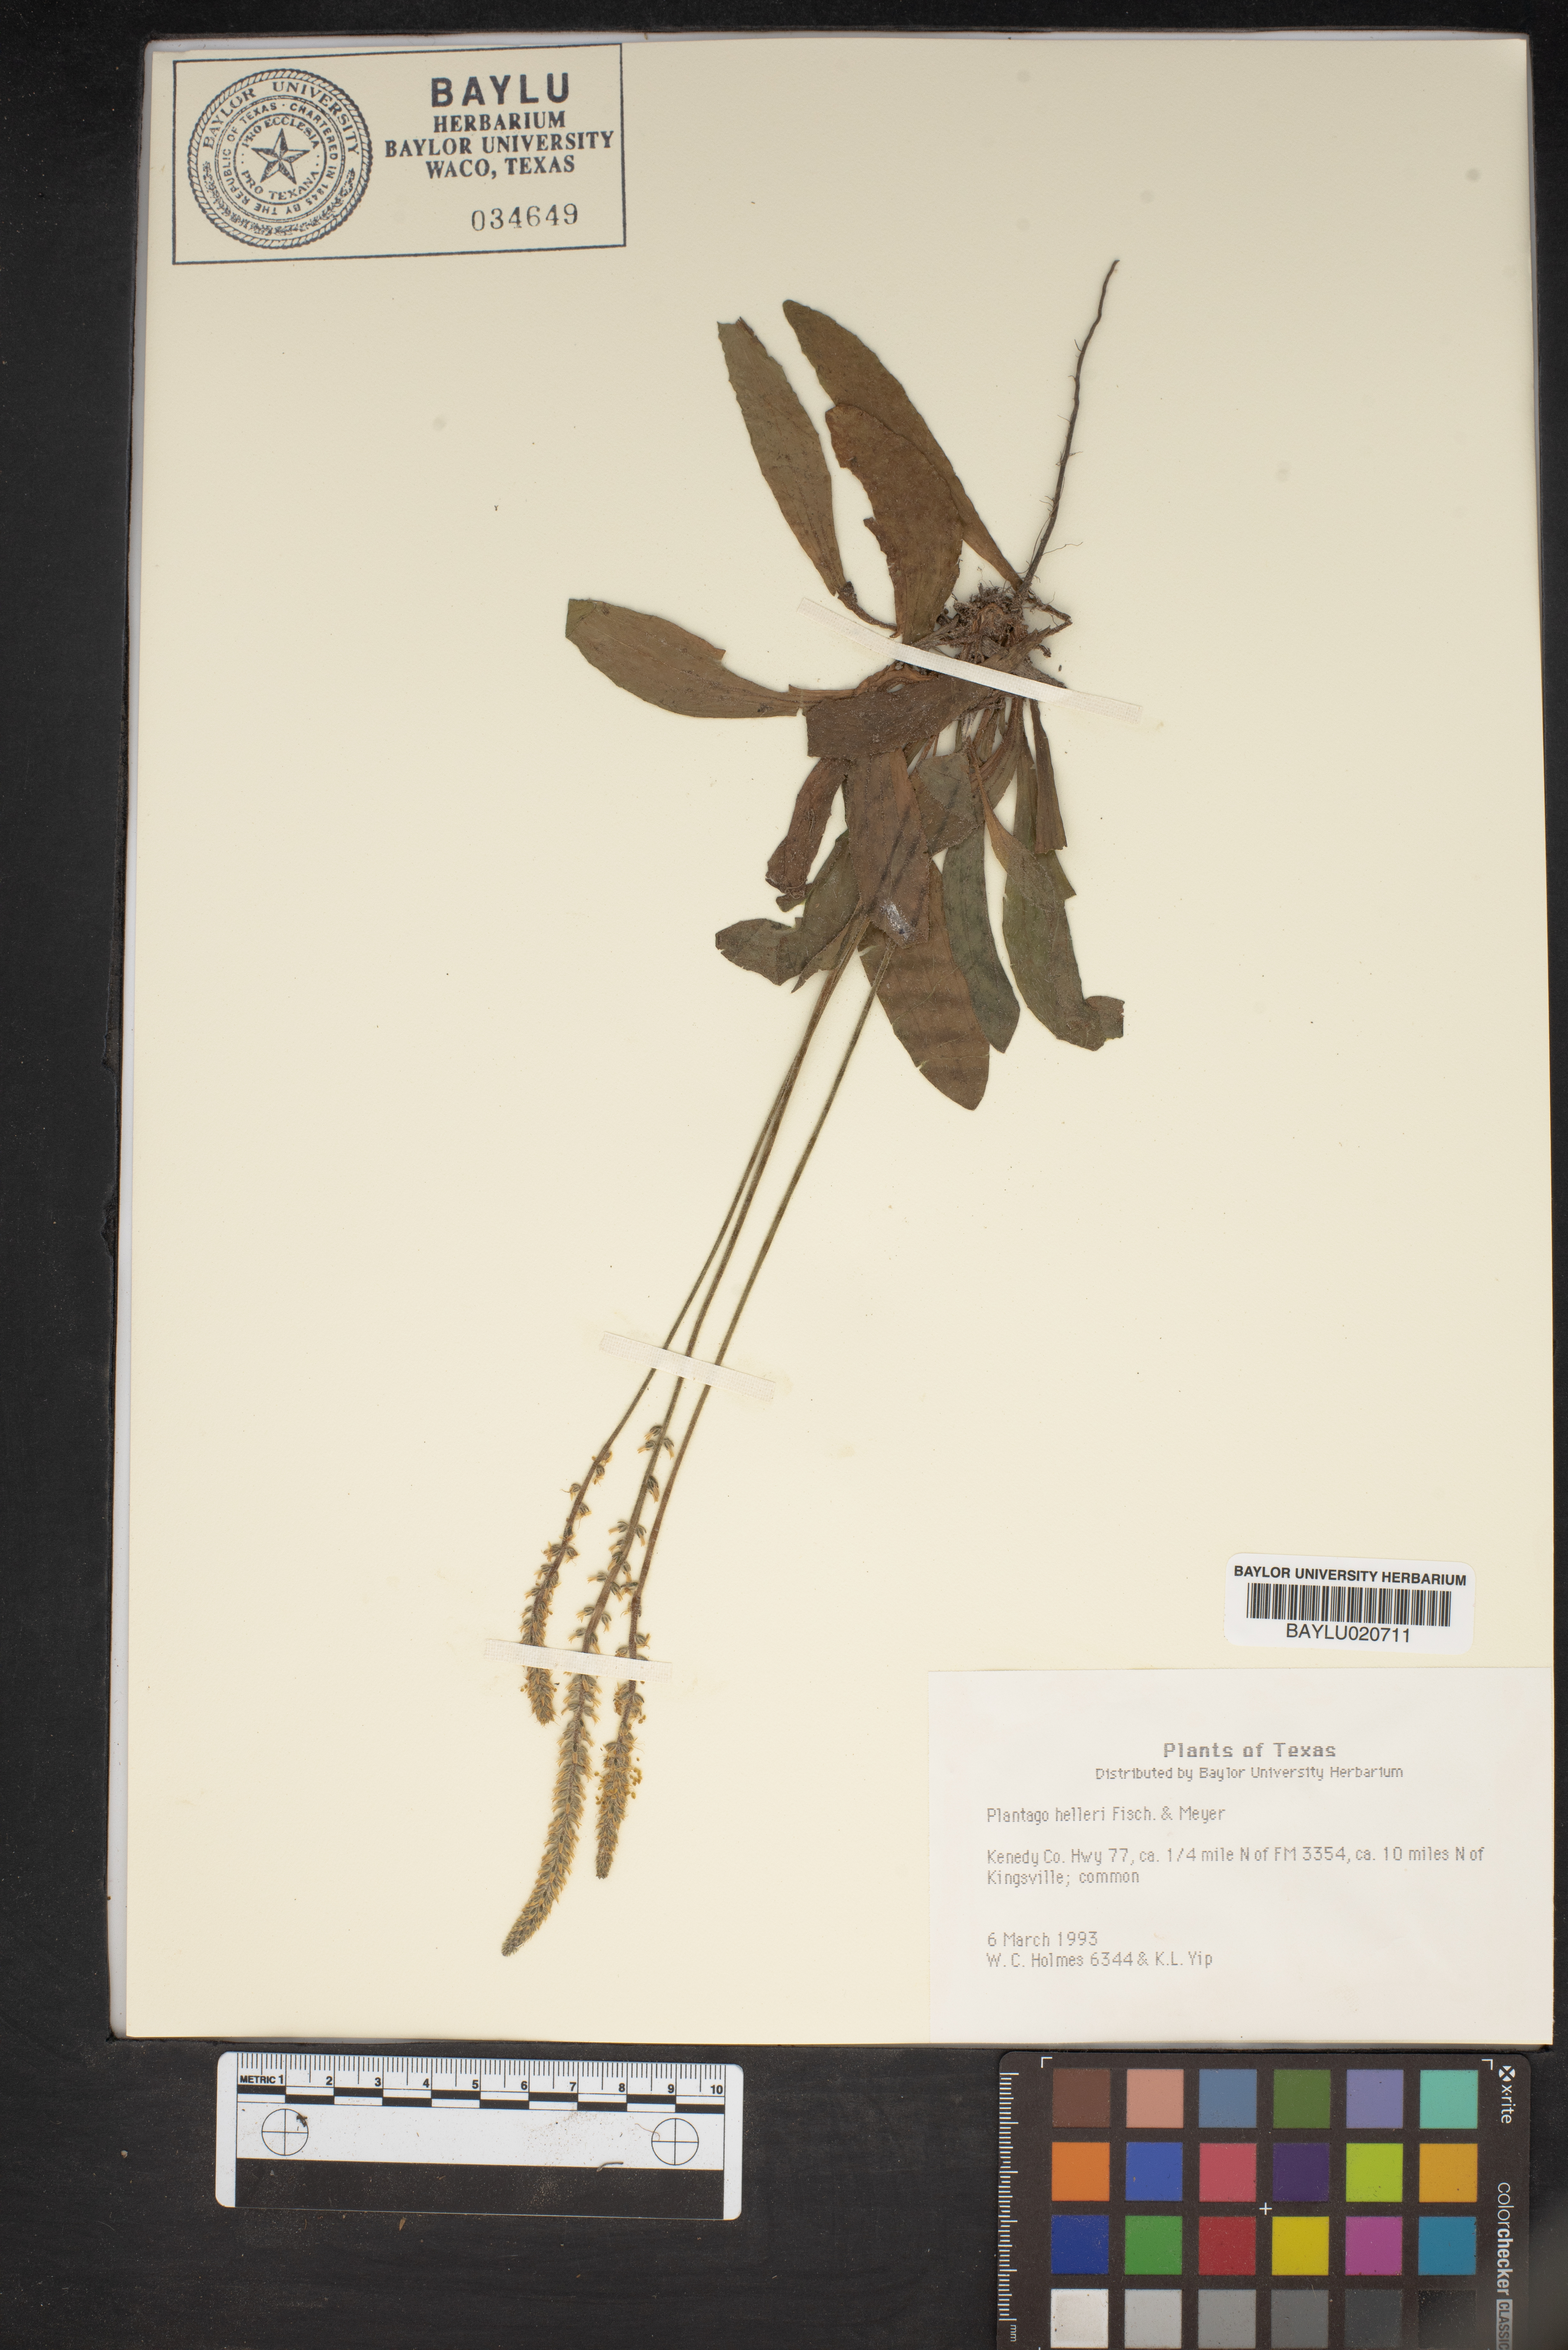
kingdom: Plantae
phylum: Tracheophyta
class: Magnoliopsida
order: Lamiales
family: Plantaginaceae
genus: Plantago
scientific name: Plantago helleri
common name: Heller's plantain
